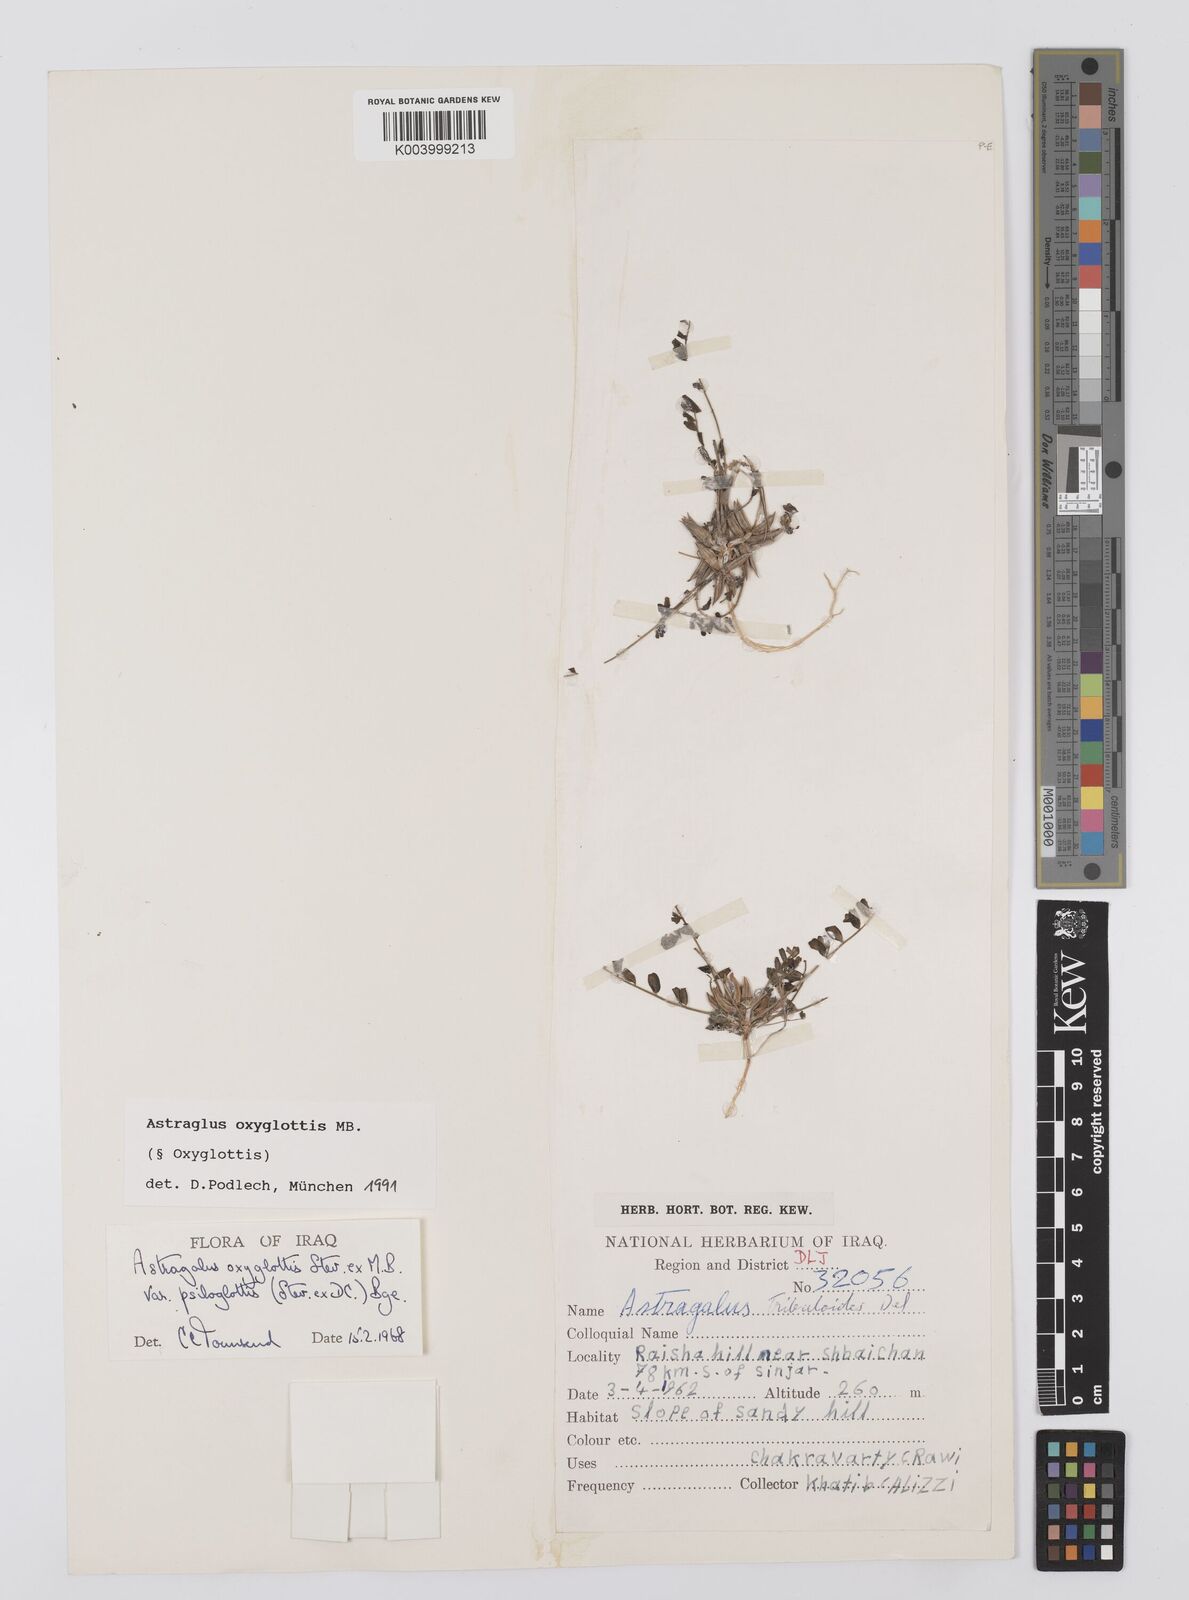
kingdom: Plantae
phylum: Tracheophyta
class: Magnoliopsida
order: Fabales
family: Fabaceae
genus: Astragalus
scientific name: Astragalus oxyglottis
